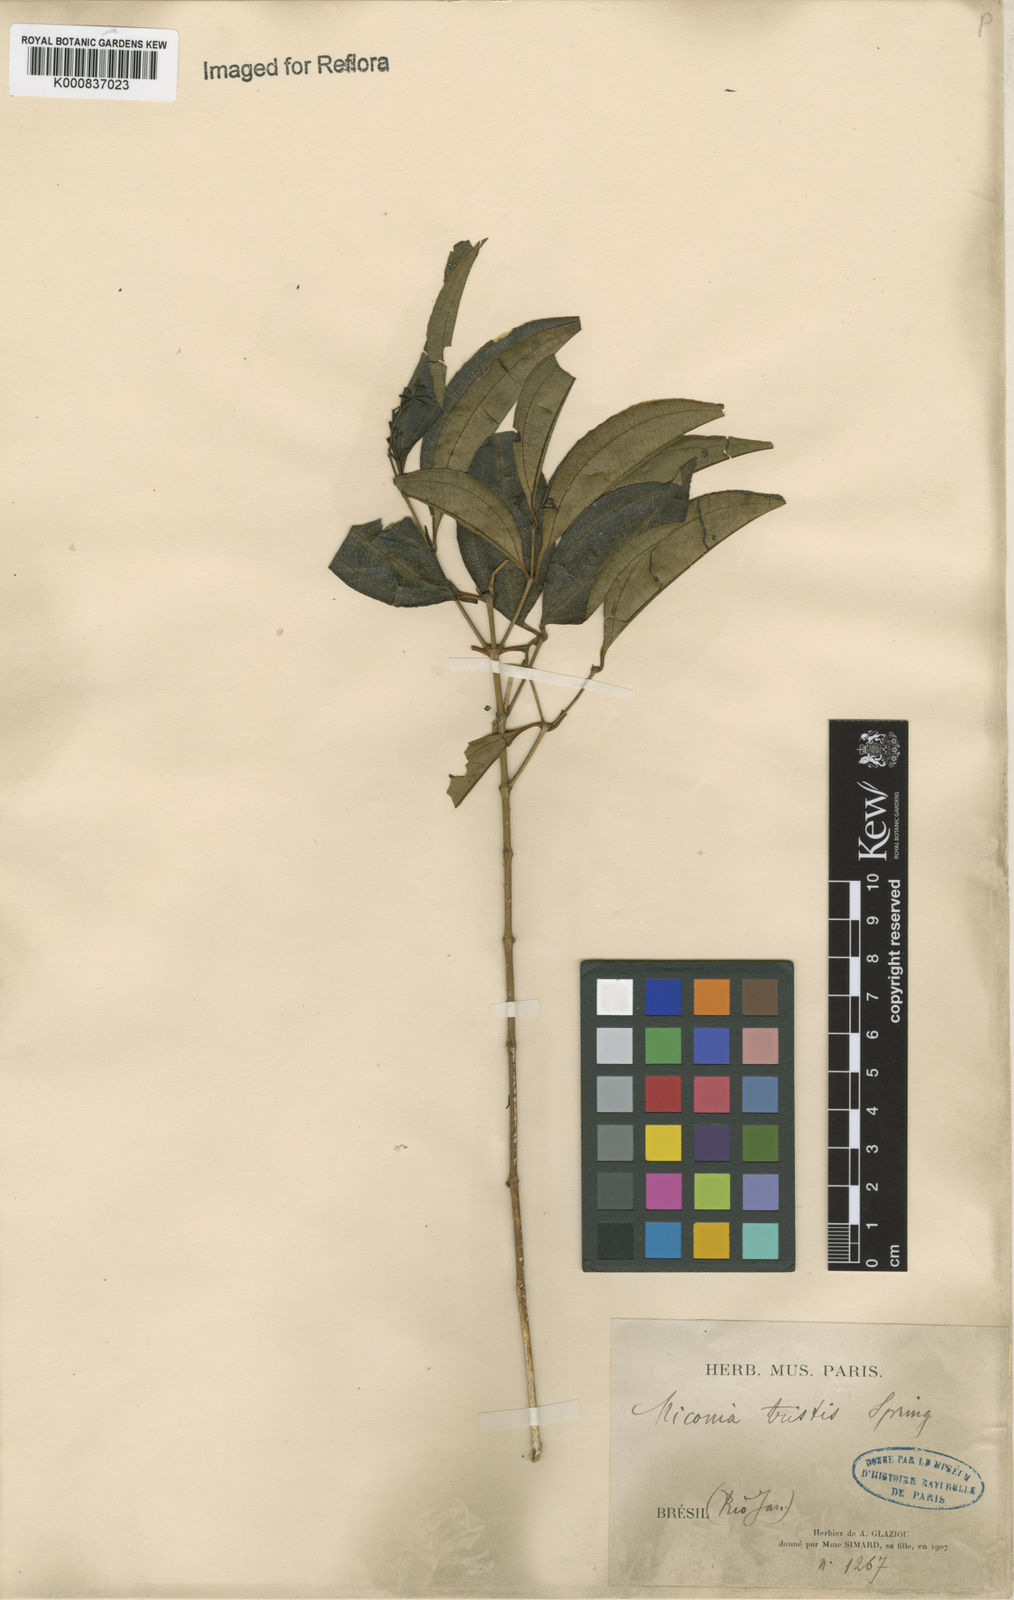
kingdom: Plantae
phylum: Tracheophyta
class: Magnoliopsida
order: Myrtales
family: Melastomataceae
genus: Miconia
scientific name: Miconia
